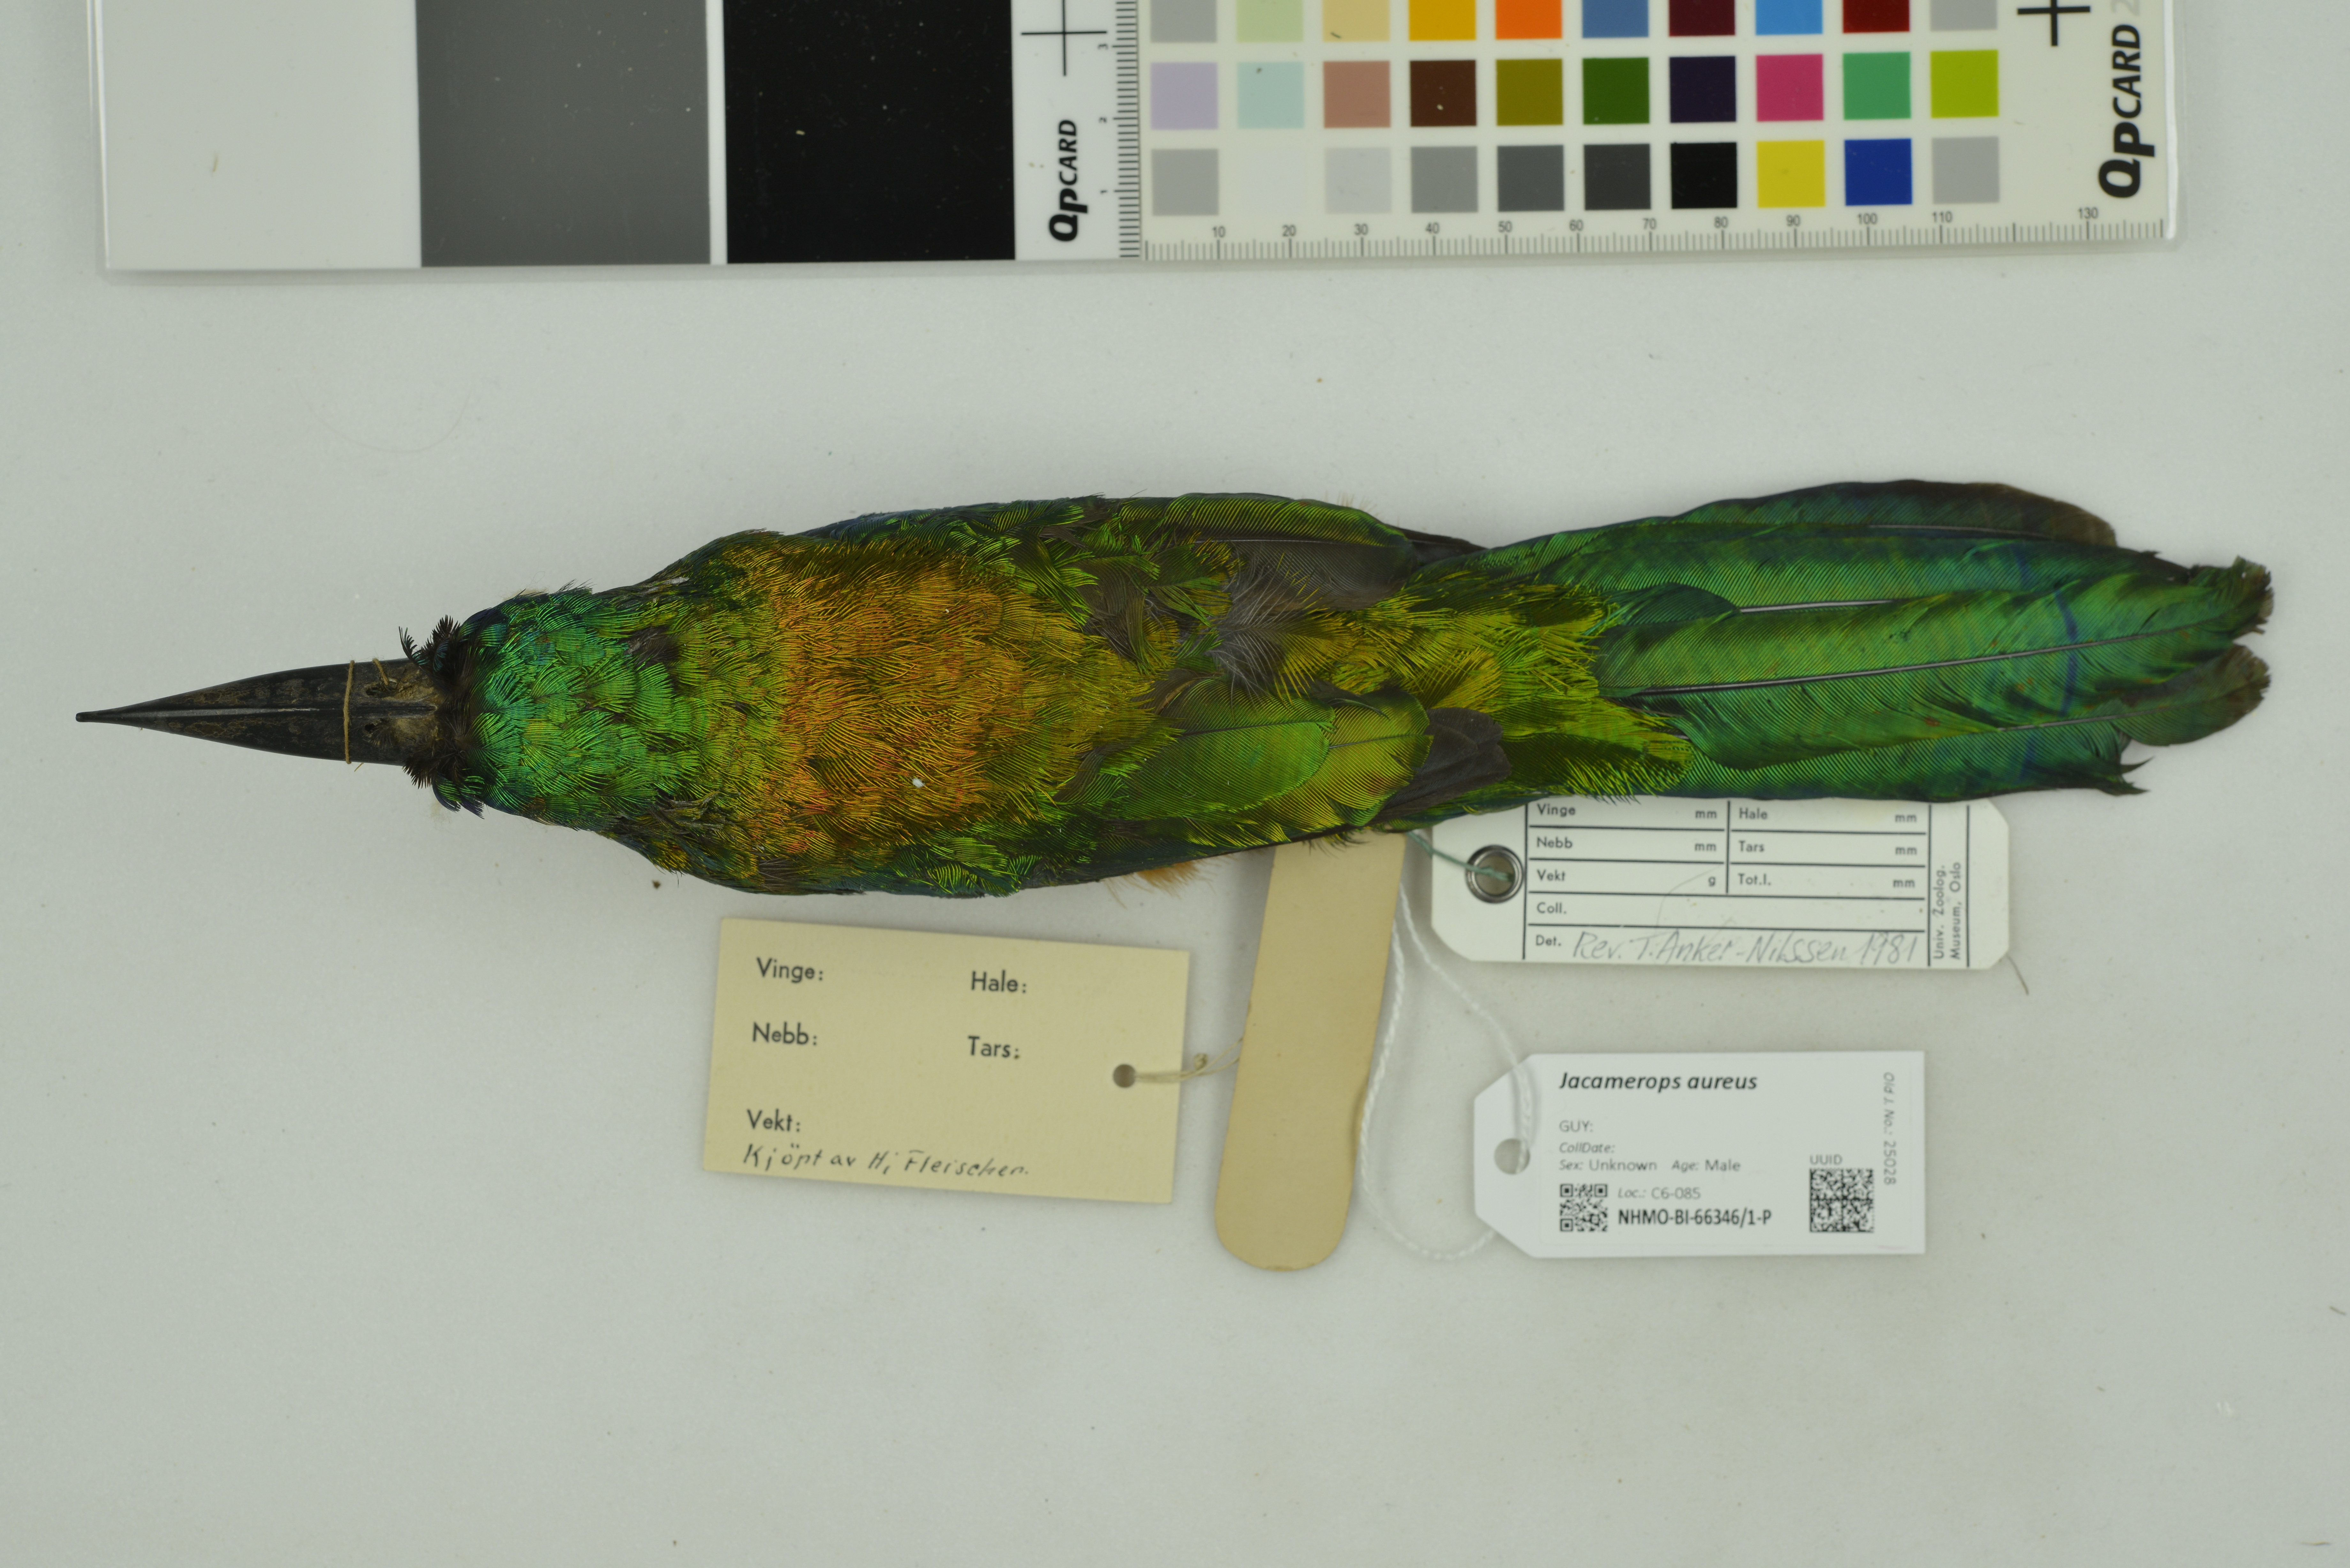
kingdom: Animalia
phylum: Chordata
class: Aves
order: Piciformes
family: Galbulidae
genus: Jacamerops
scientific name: Jacamerops aureus
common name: Great jacamar
